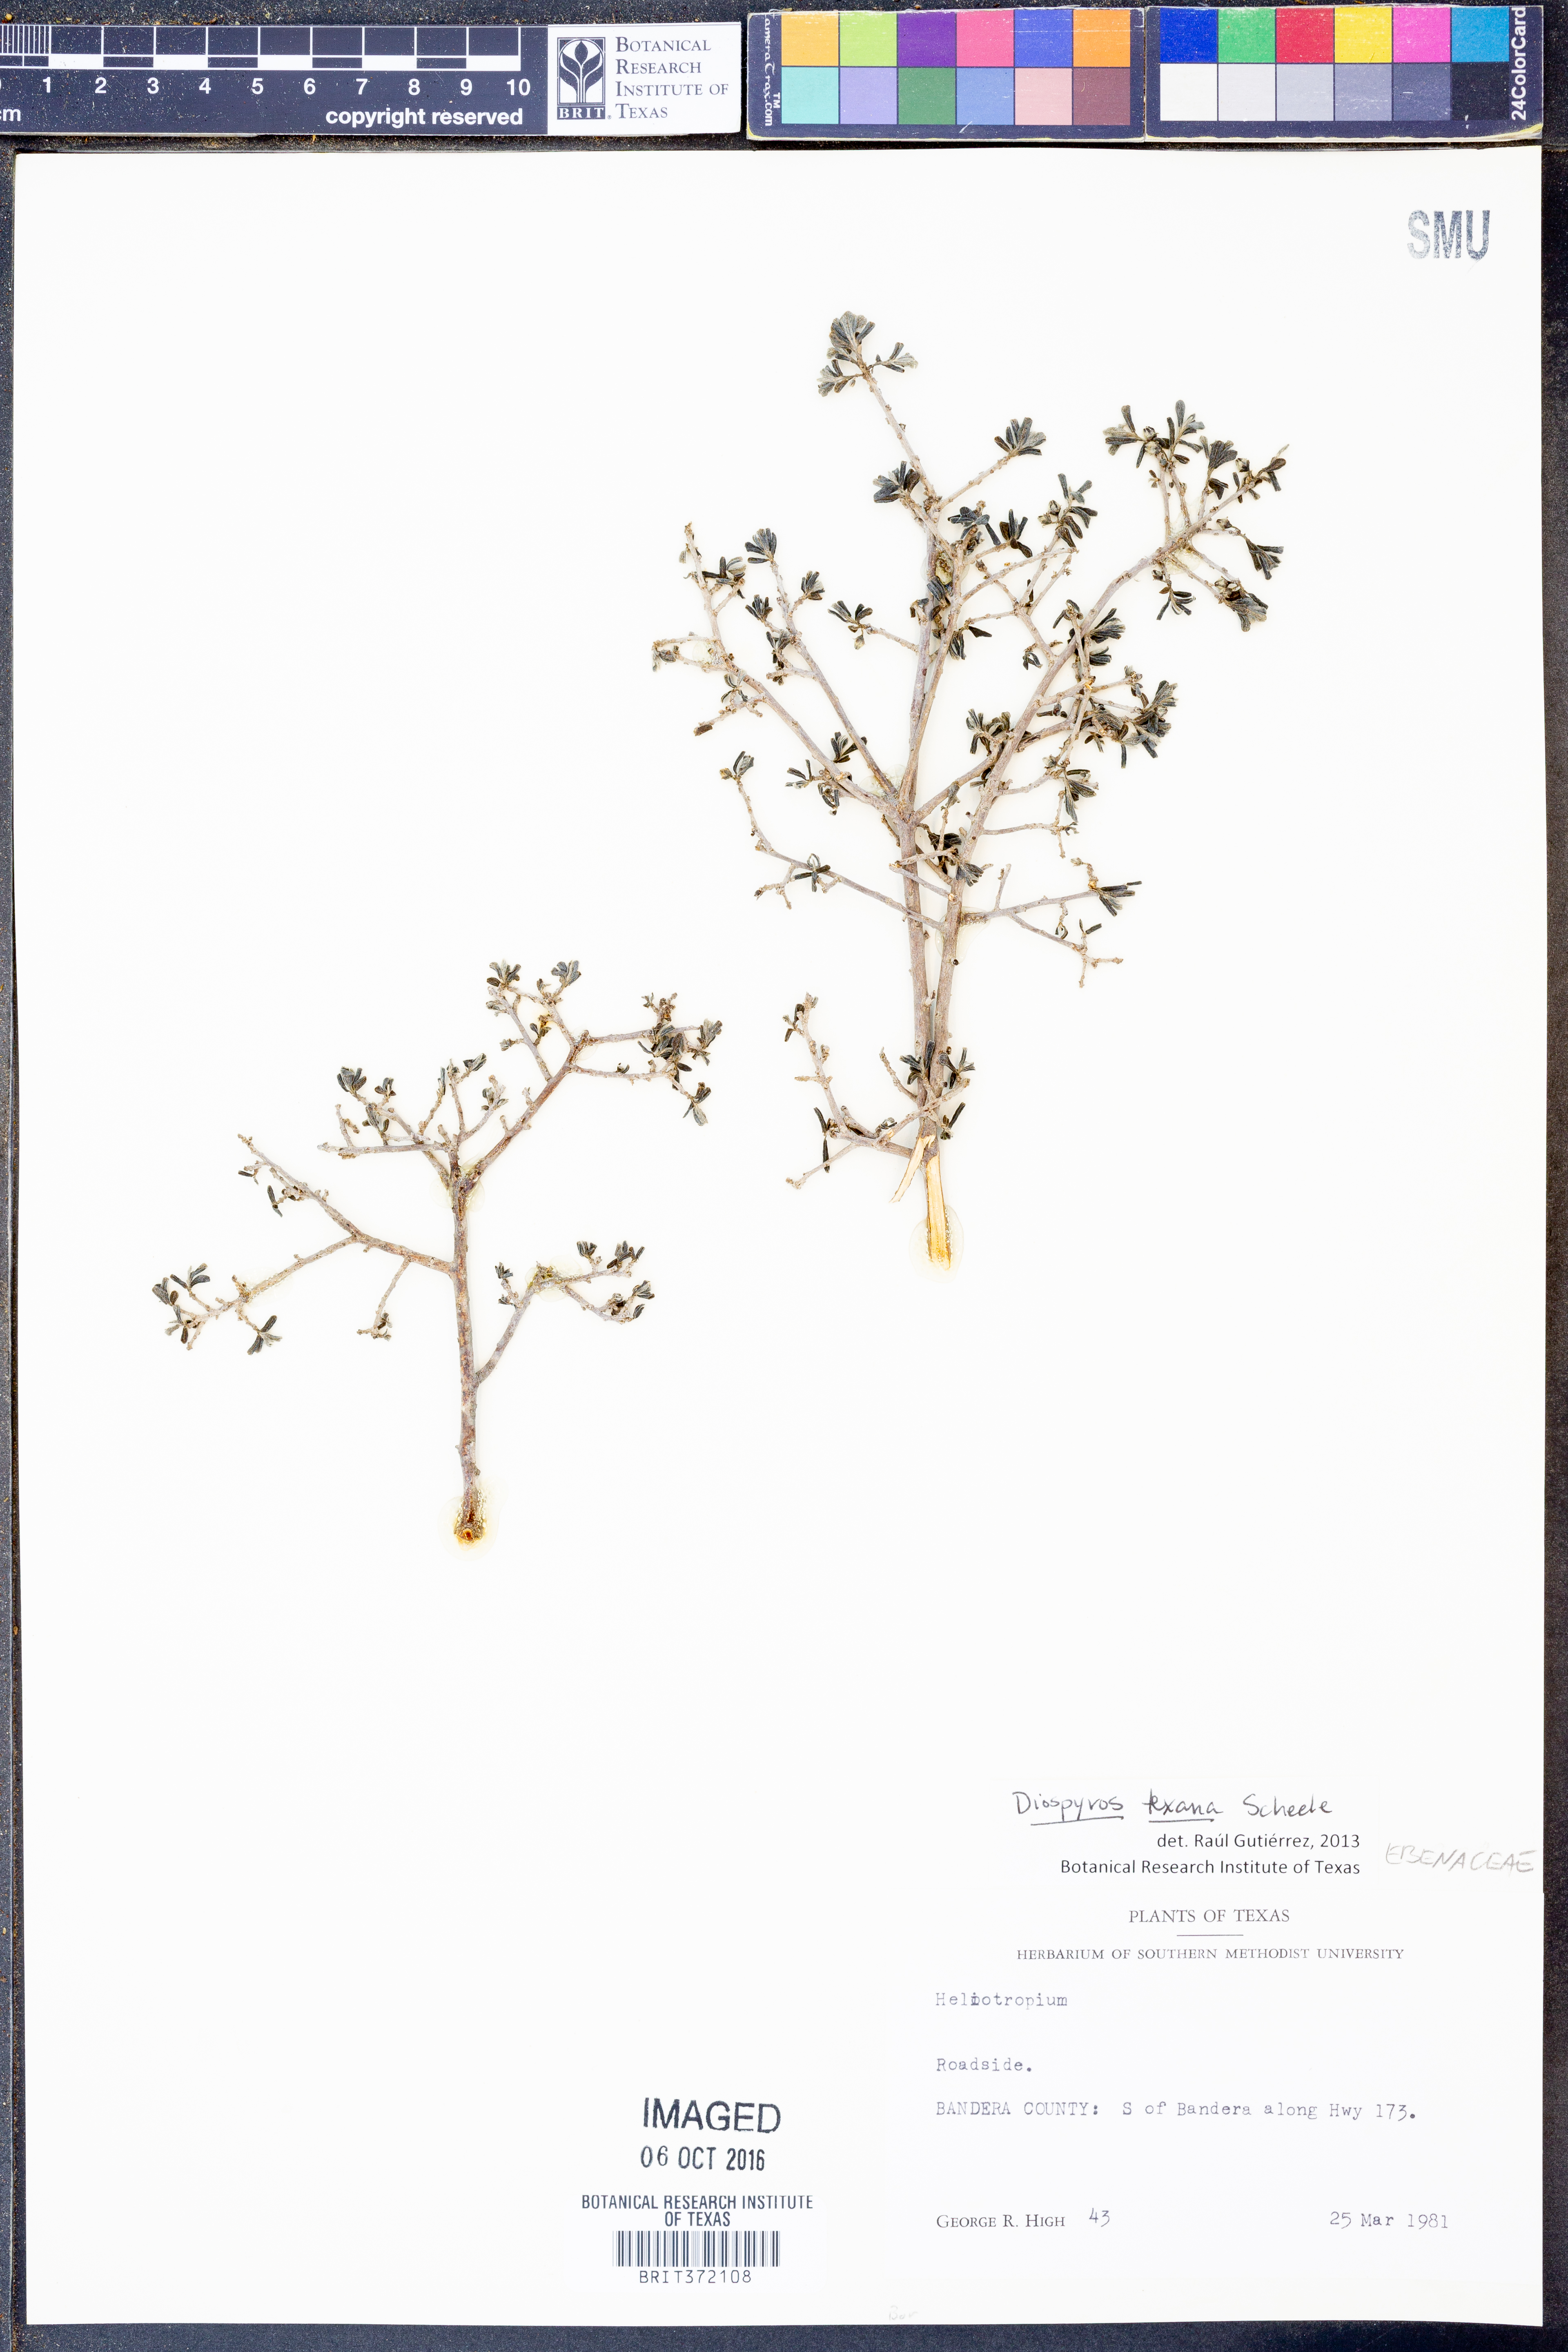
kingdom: Plantae
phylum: Tracheophyta
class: Magnoliopsida
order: Ericales
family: Ebenaceae
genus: Diospyros
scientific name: Diospyros texana
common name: Texas persimmon
